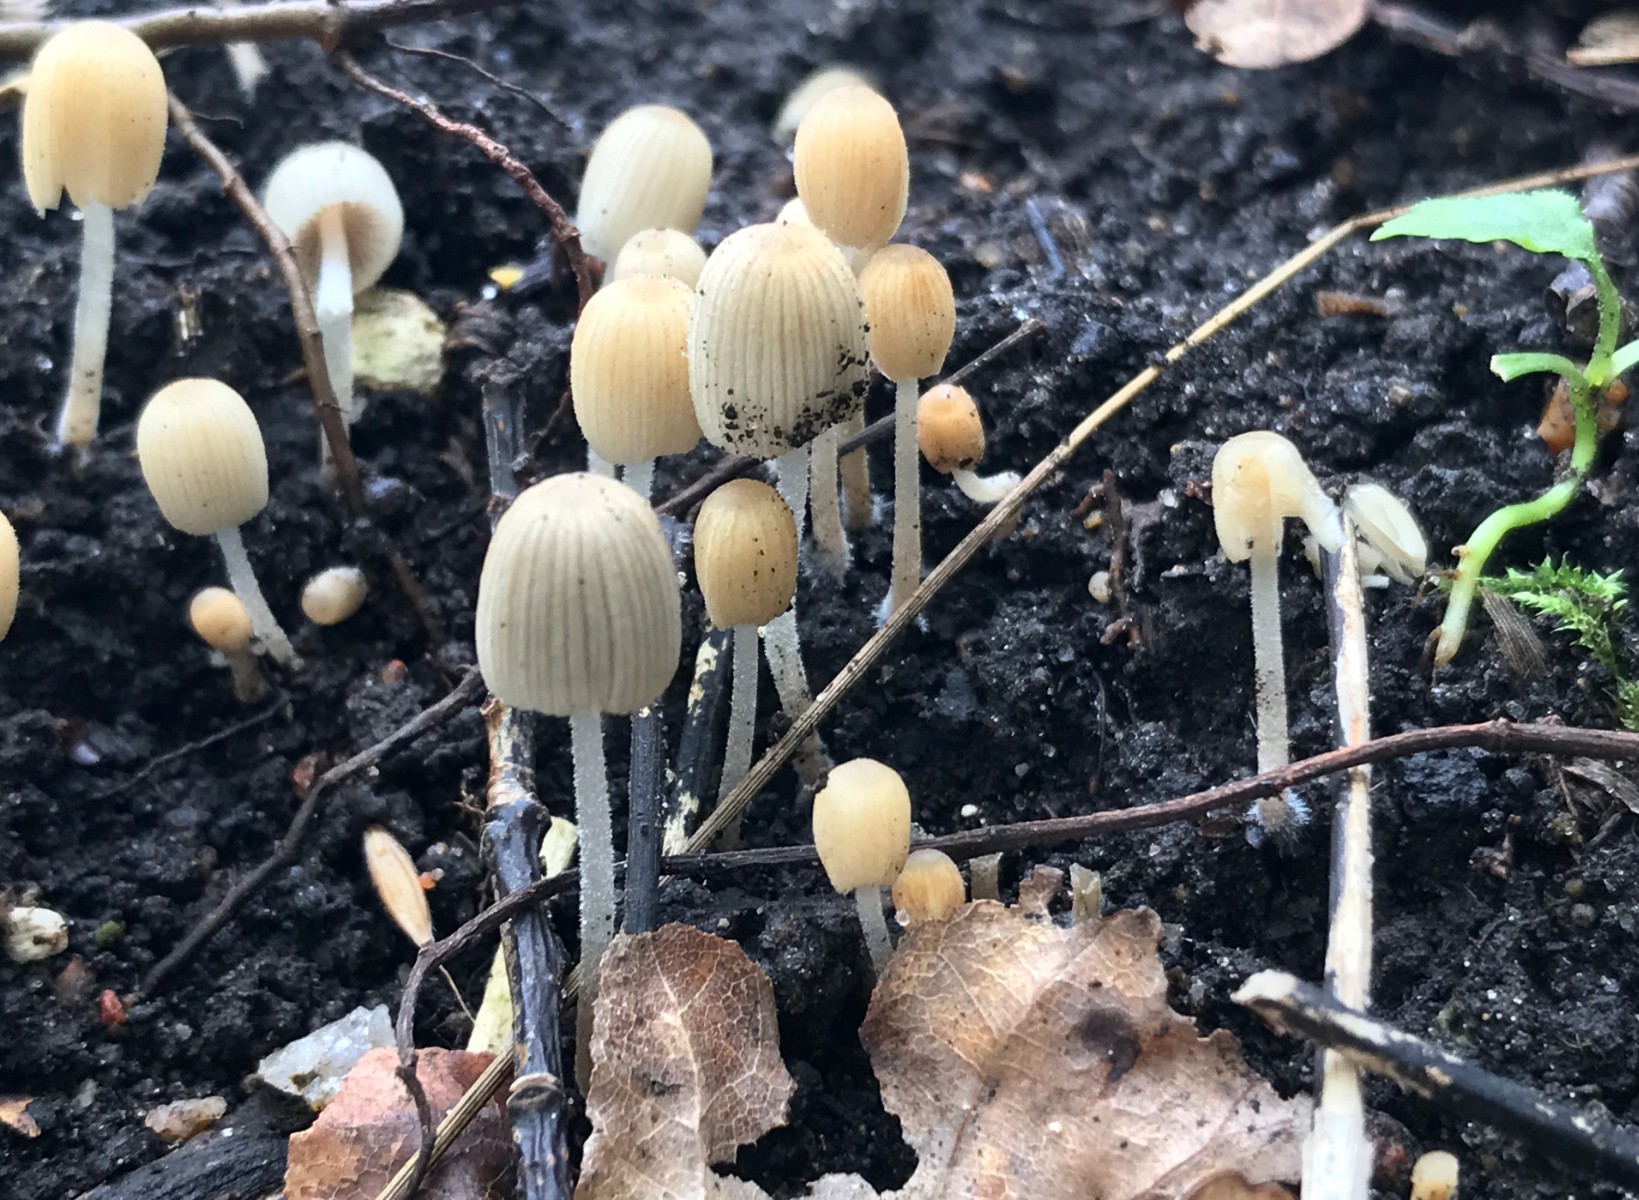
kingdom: Fungi
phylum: Basidiomycota
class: Agaricomycetes
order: Agaricales
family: Psathyrellaceae
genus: Coprinellus
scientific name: Coprinellus disseminatus
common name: bredsået blækhat
